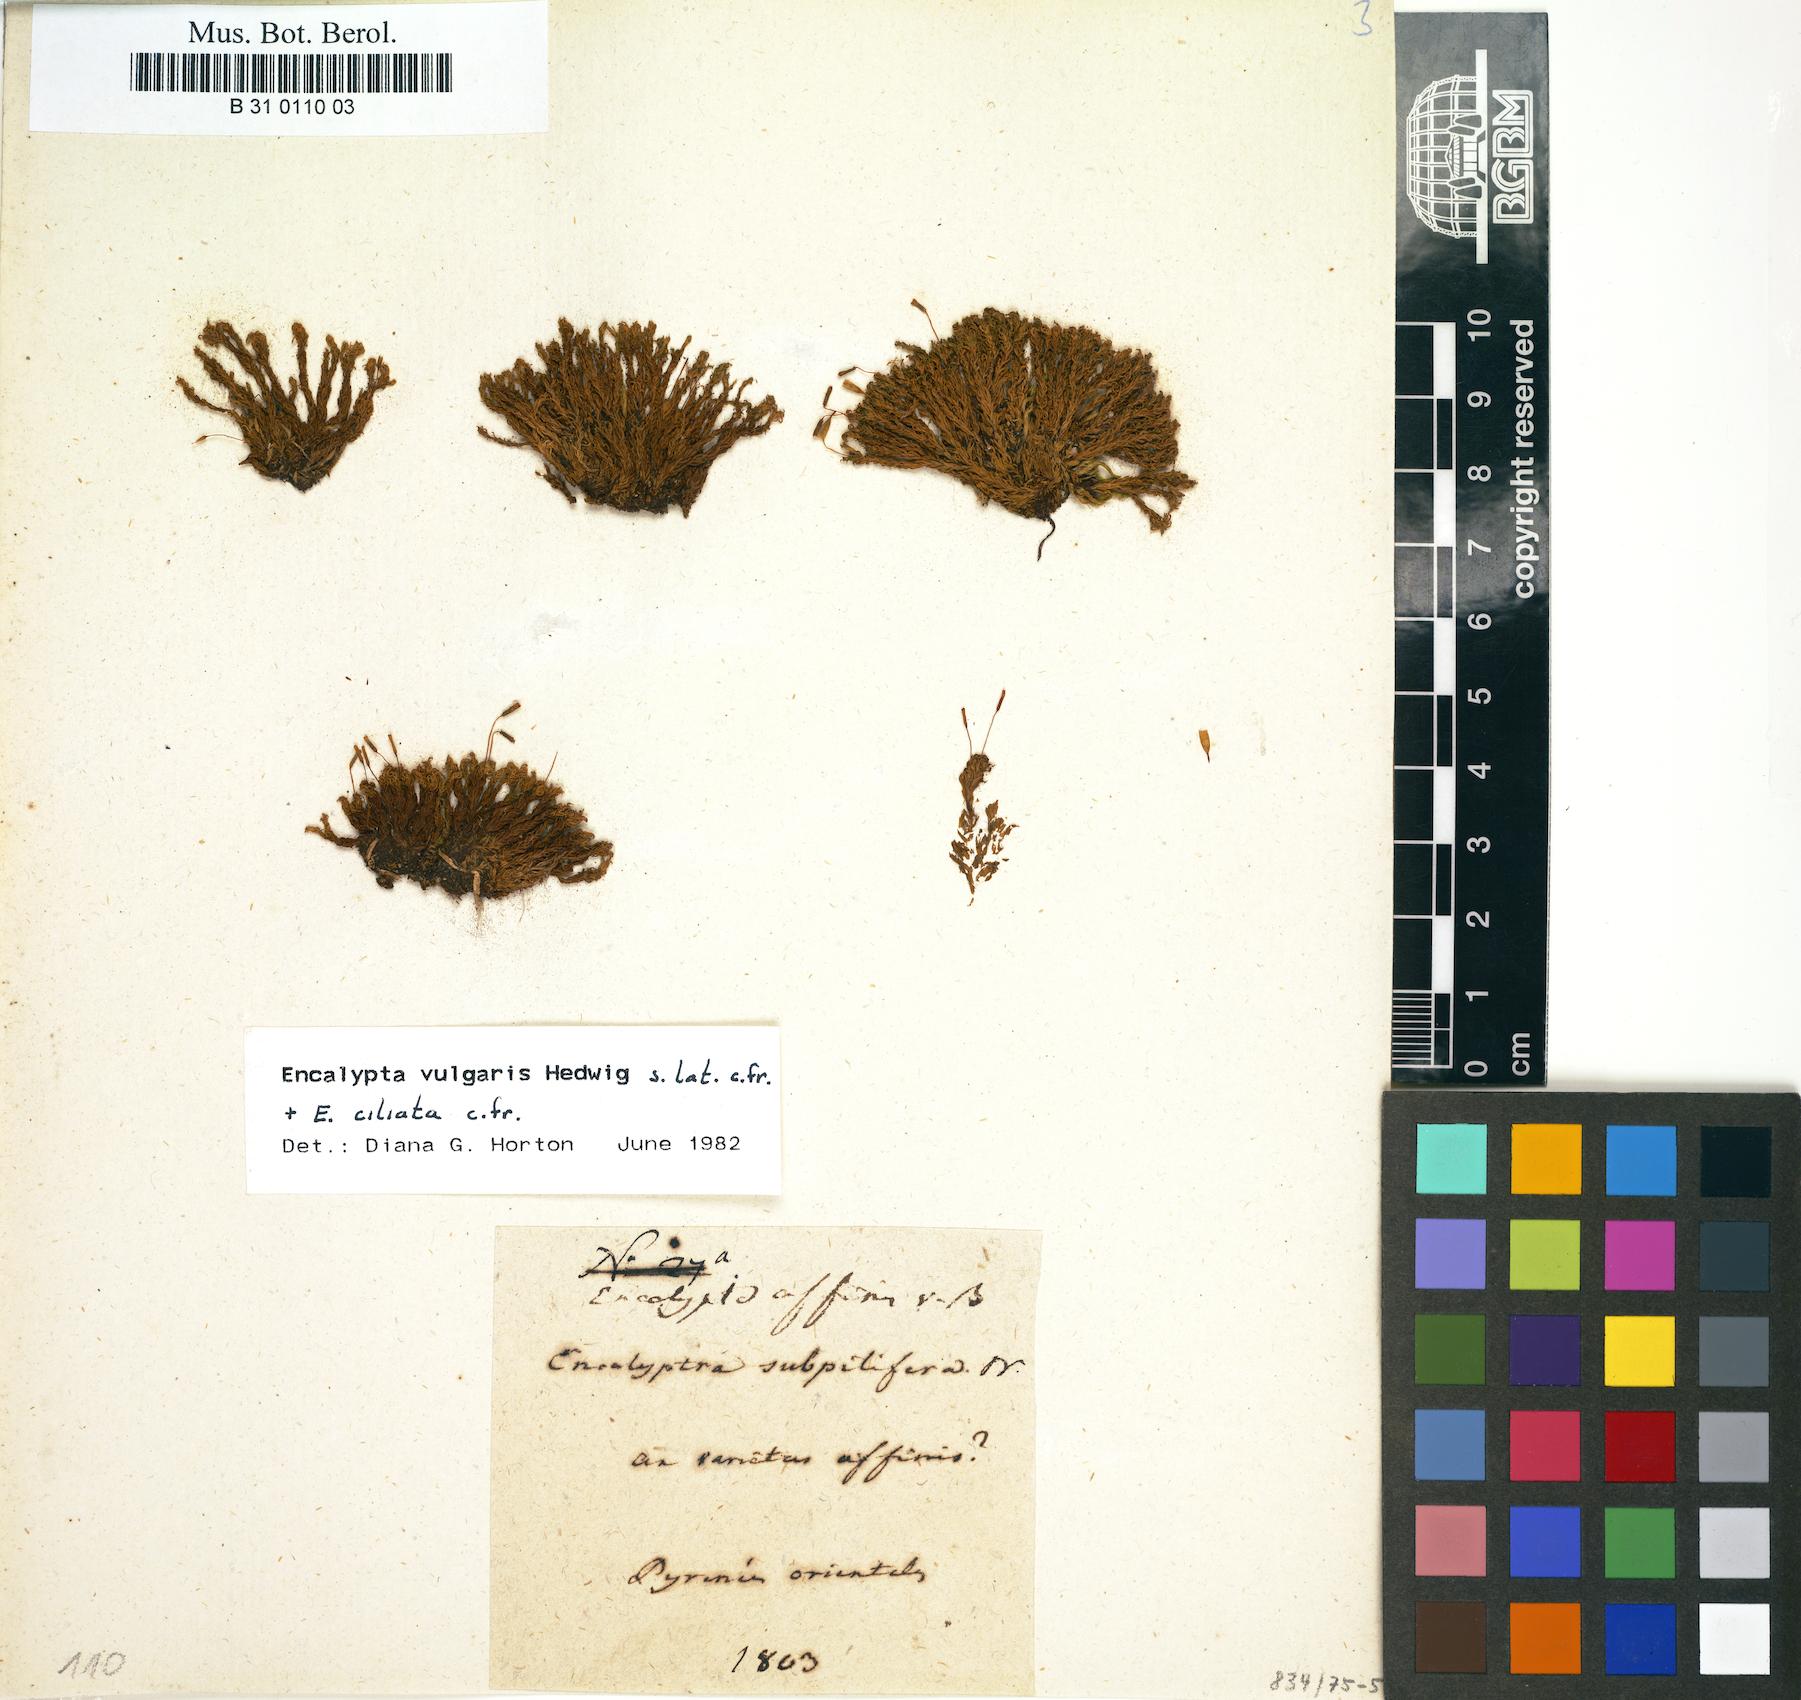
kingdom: Plantae
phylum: Bryophyta
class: Bryopsida
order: Encalyptales
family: Encalyptaceae
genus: Encalypta
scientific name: Encalypta affinis
